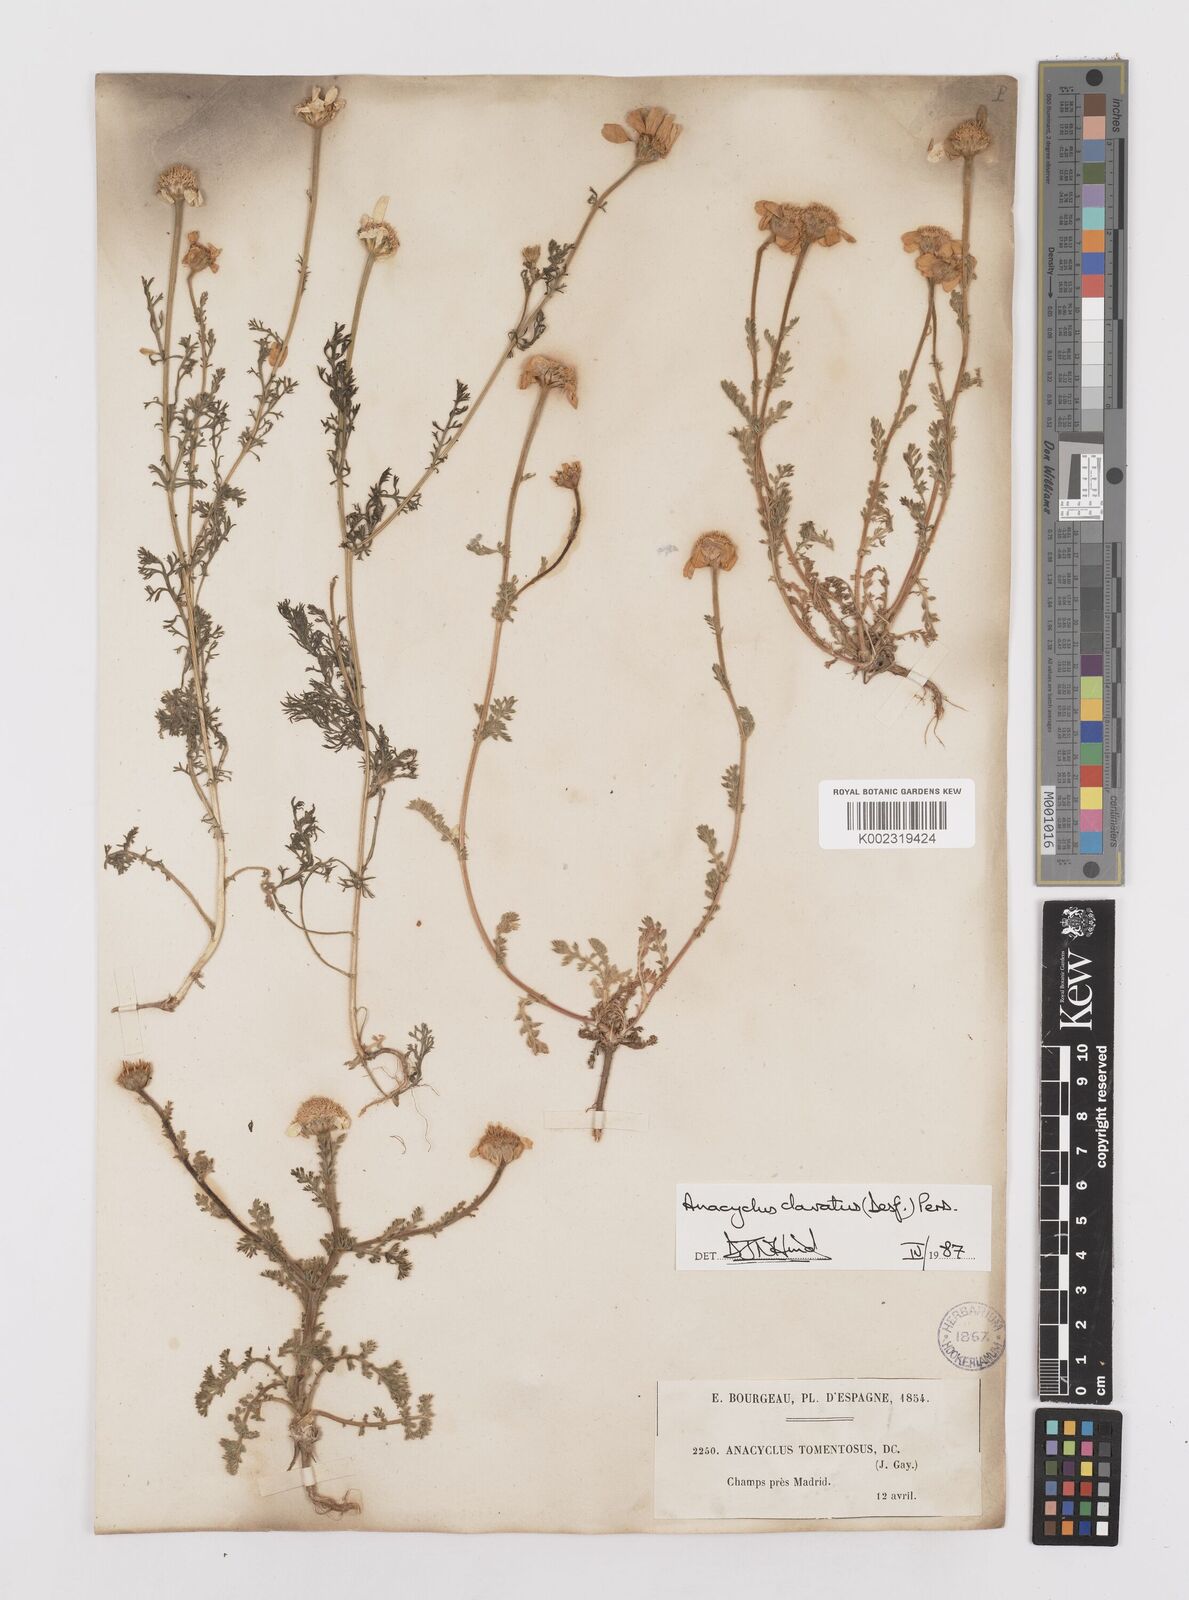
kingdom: Plantae
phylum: Tracheophyta
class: Magnoliopsida
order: Asterales
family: Asteraceae
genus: Anacyclus
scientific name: Anacyclus clavatus
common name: Whitebuttons
